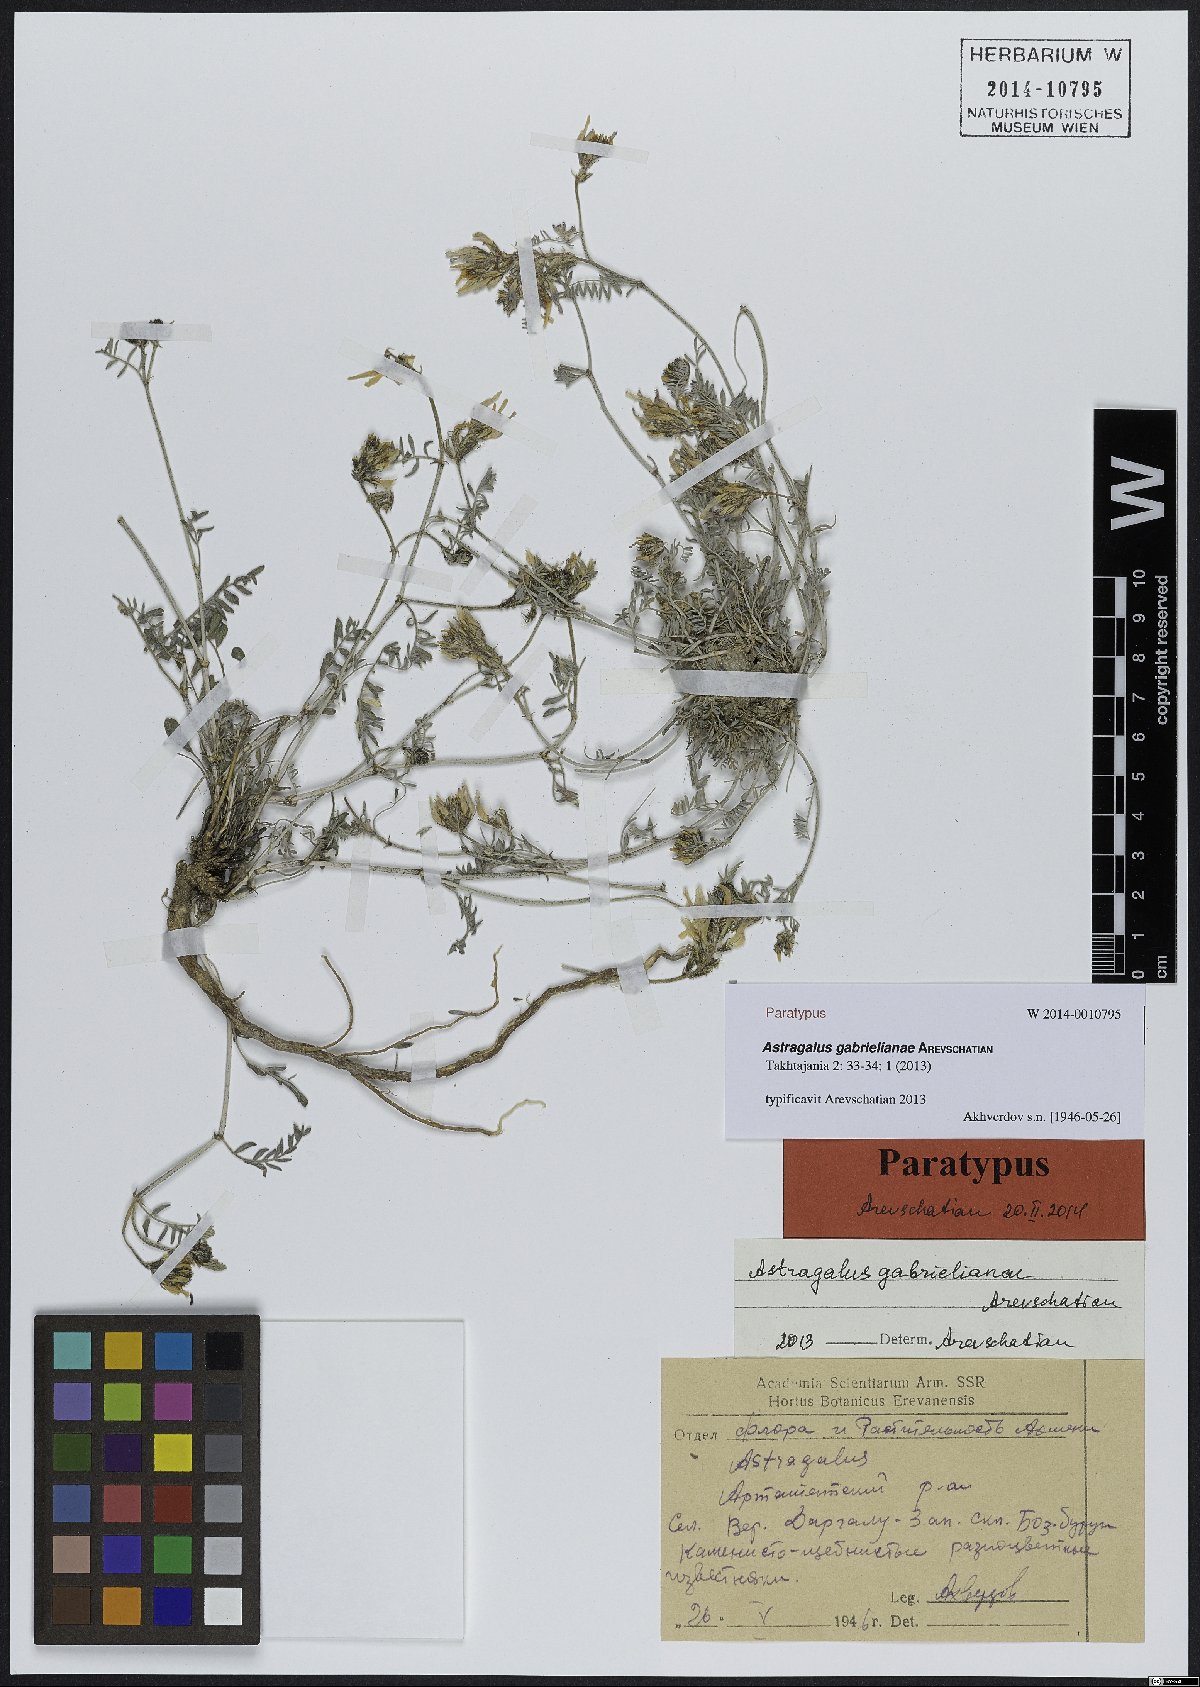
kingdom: Plantae
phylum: Tracheophyta
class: Magnoliopsida
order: Fabales
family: Fabaceae
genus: Astragalus
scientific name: Astragalus gabrelianae
